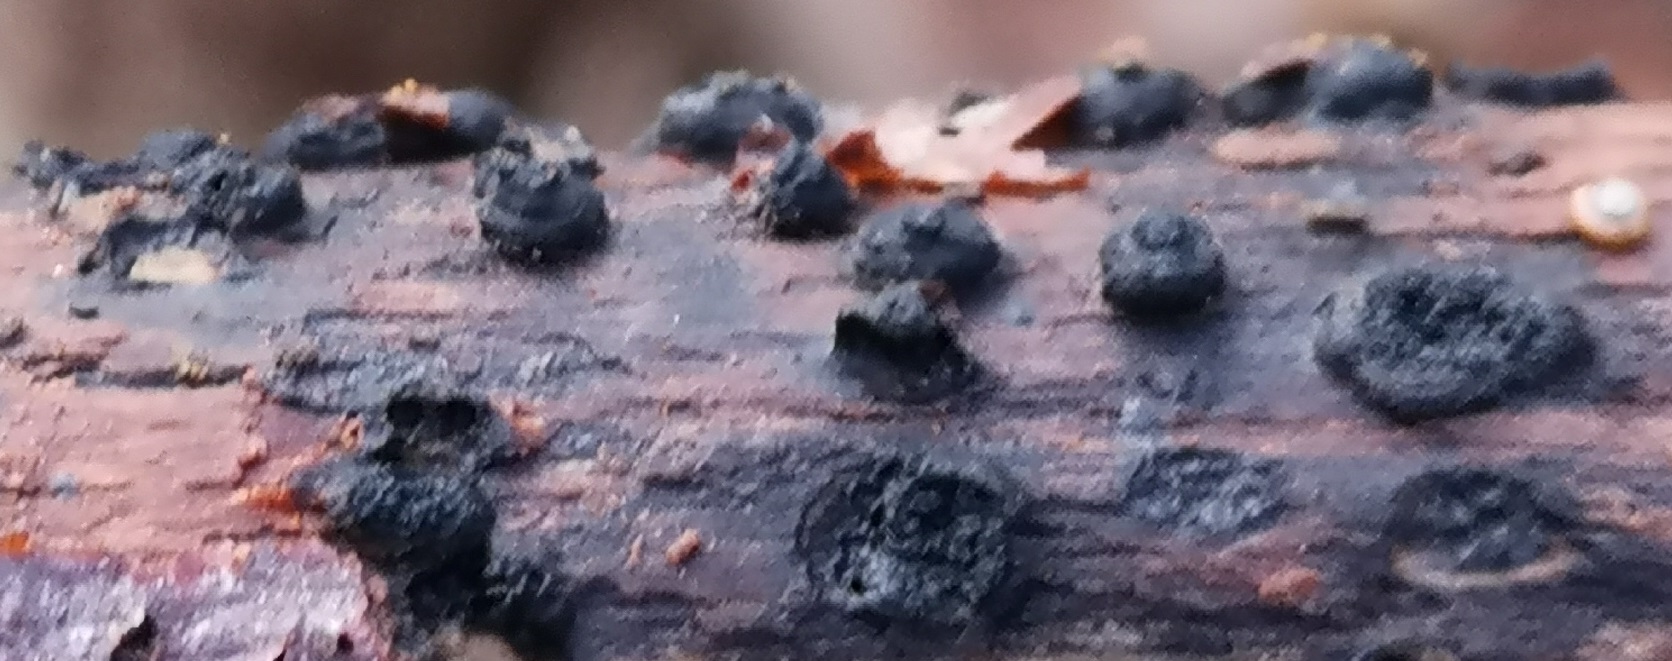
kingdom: Fungi
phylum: Ascomycota
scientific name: Ascomycota
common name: sæksvampe
